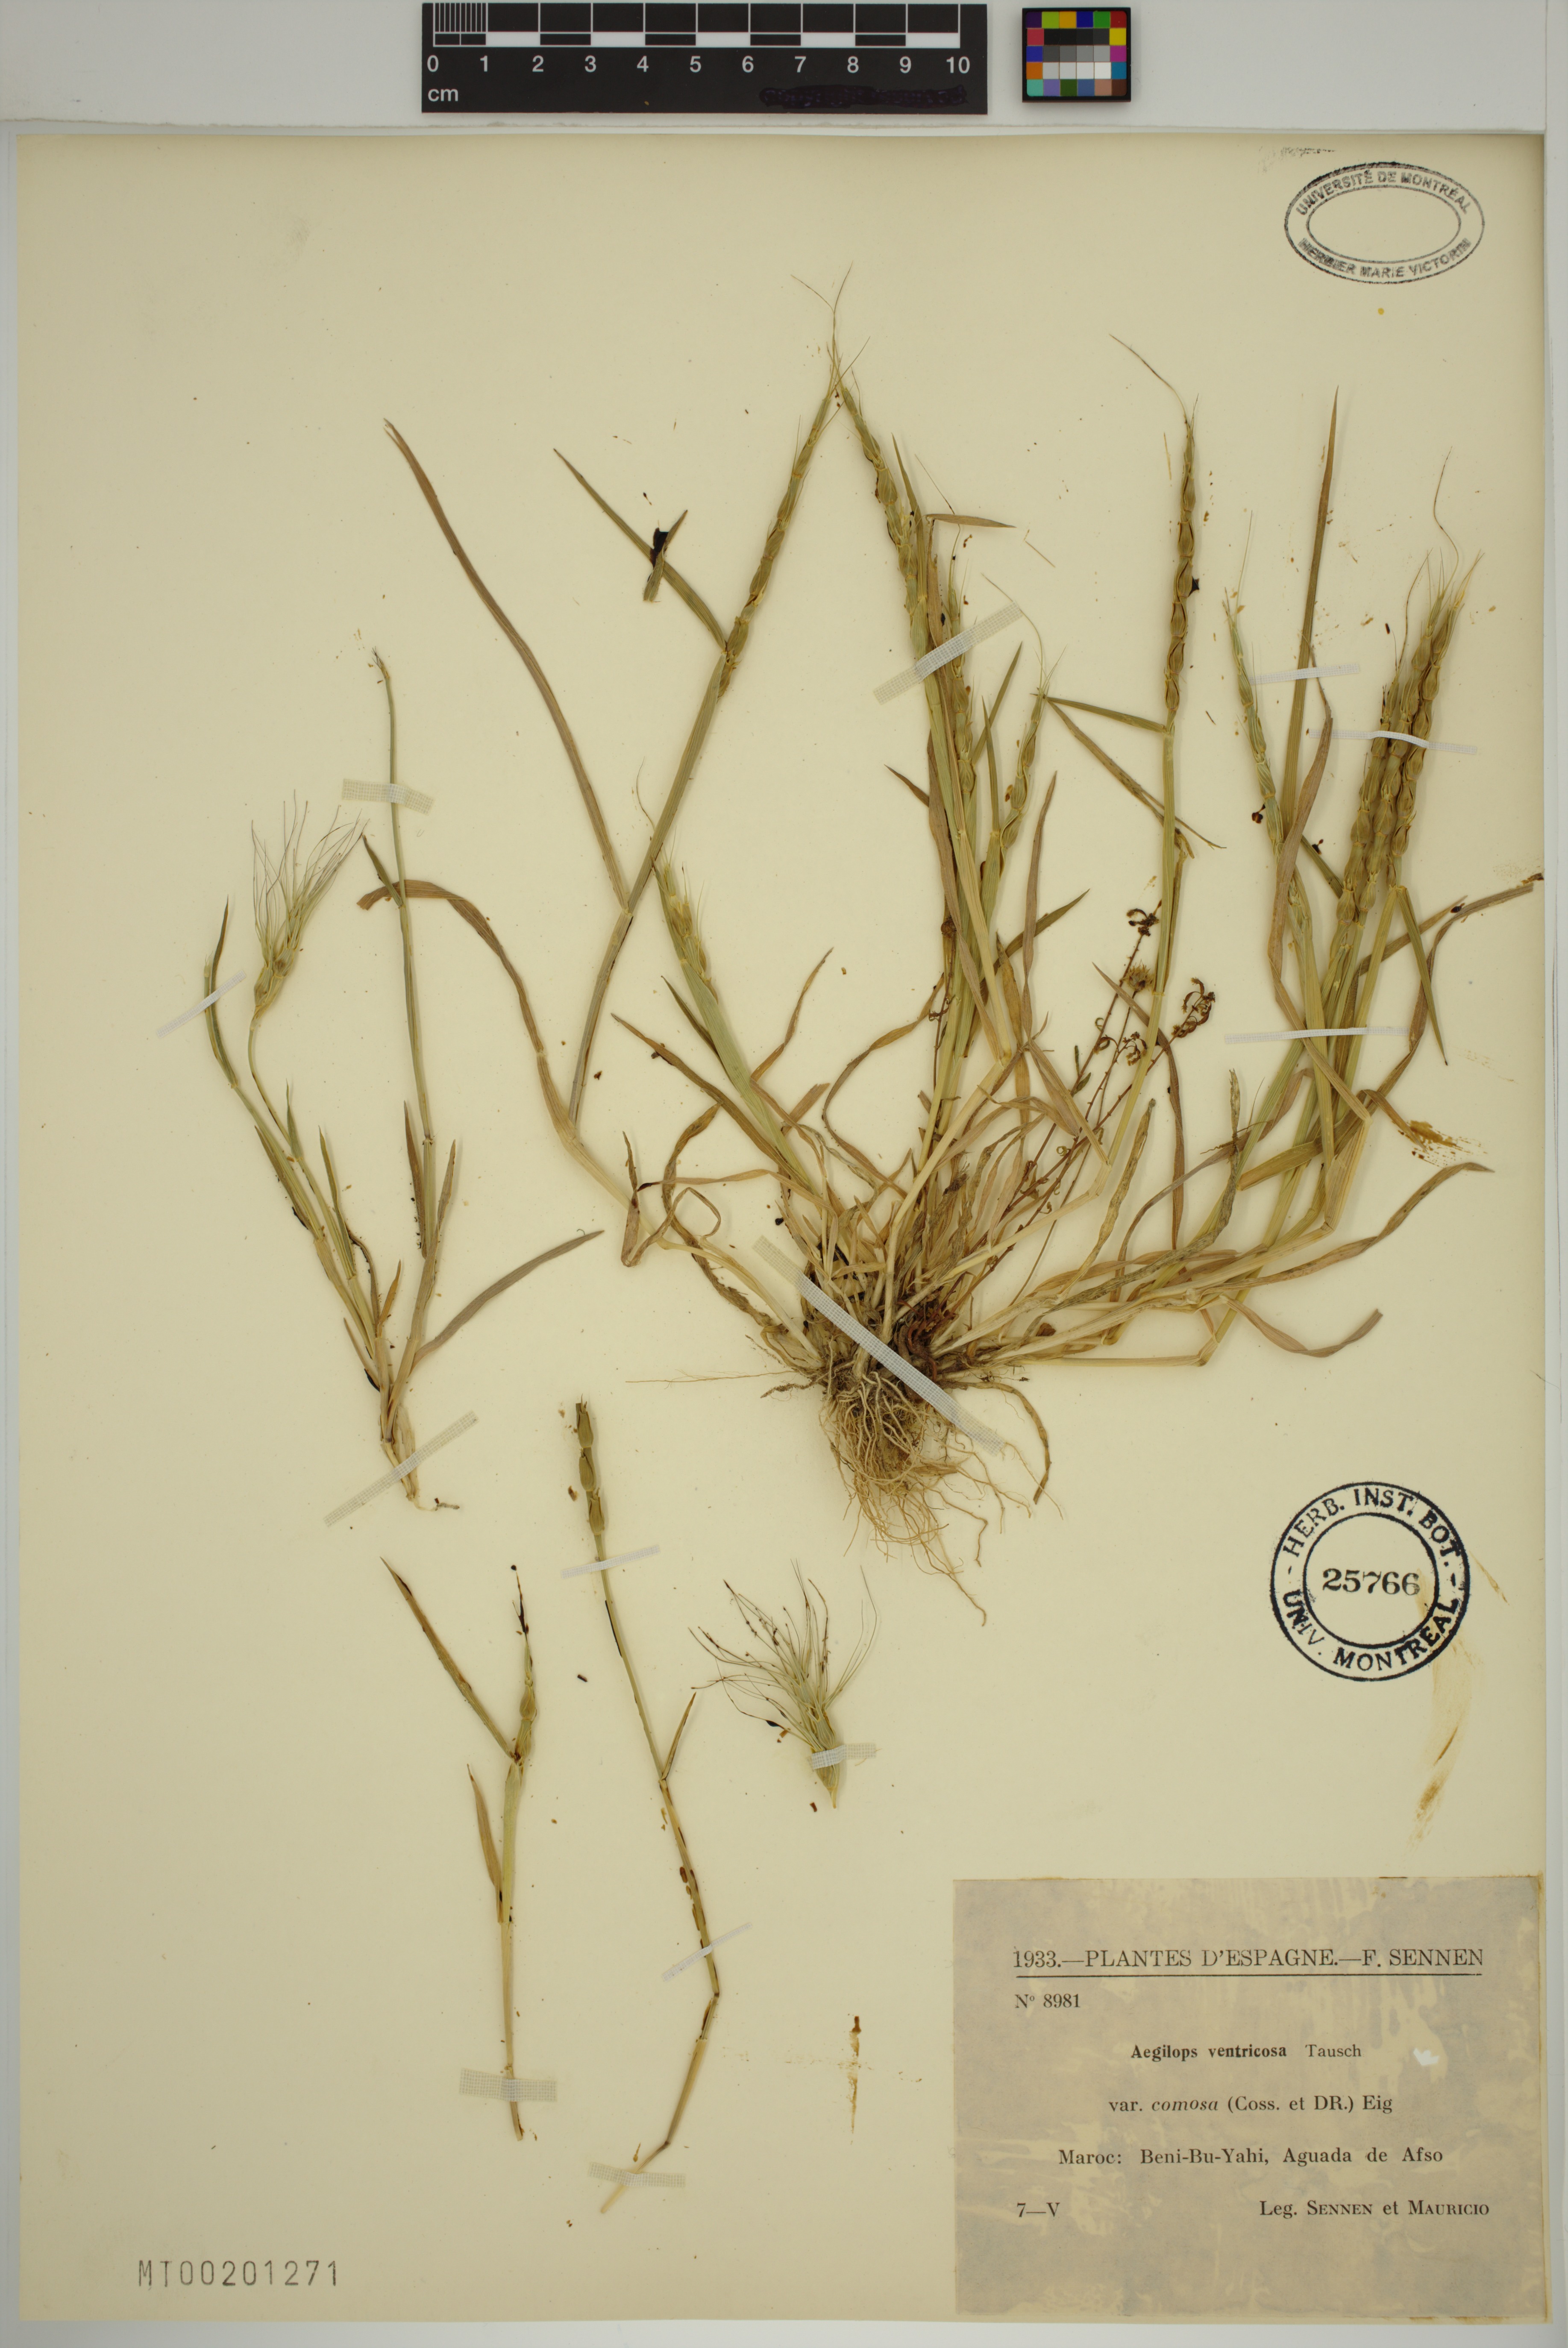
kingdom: Plantae
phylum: Tracheophyta
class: Liliopsida
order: Poales
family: Poaceae
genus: Aegilops
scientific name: Aegilops ventricosa
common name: Swollen goat grass
